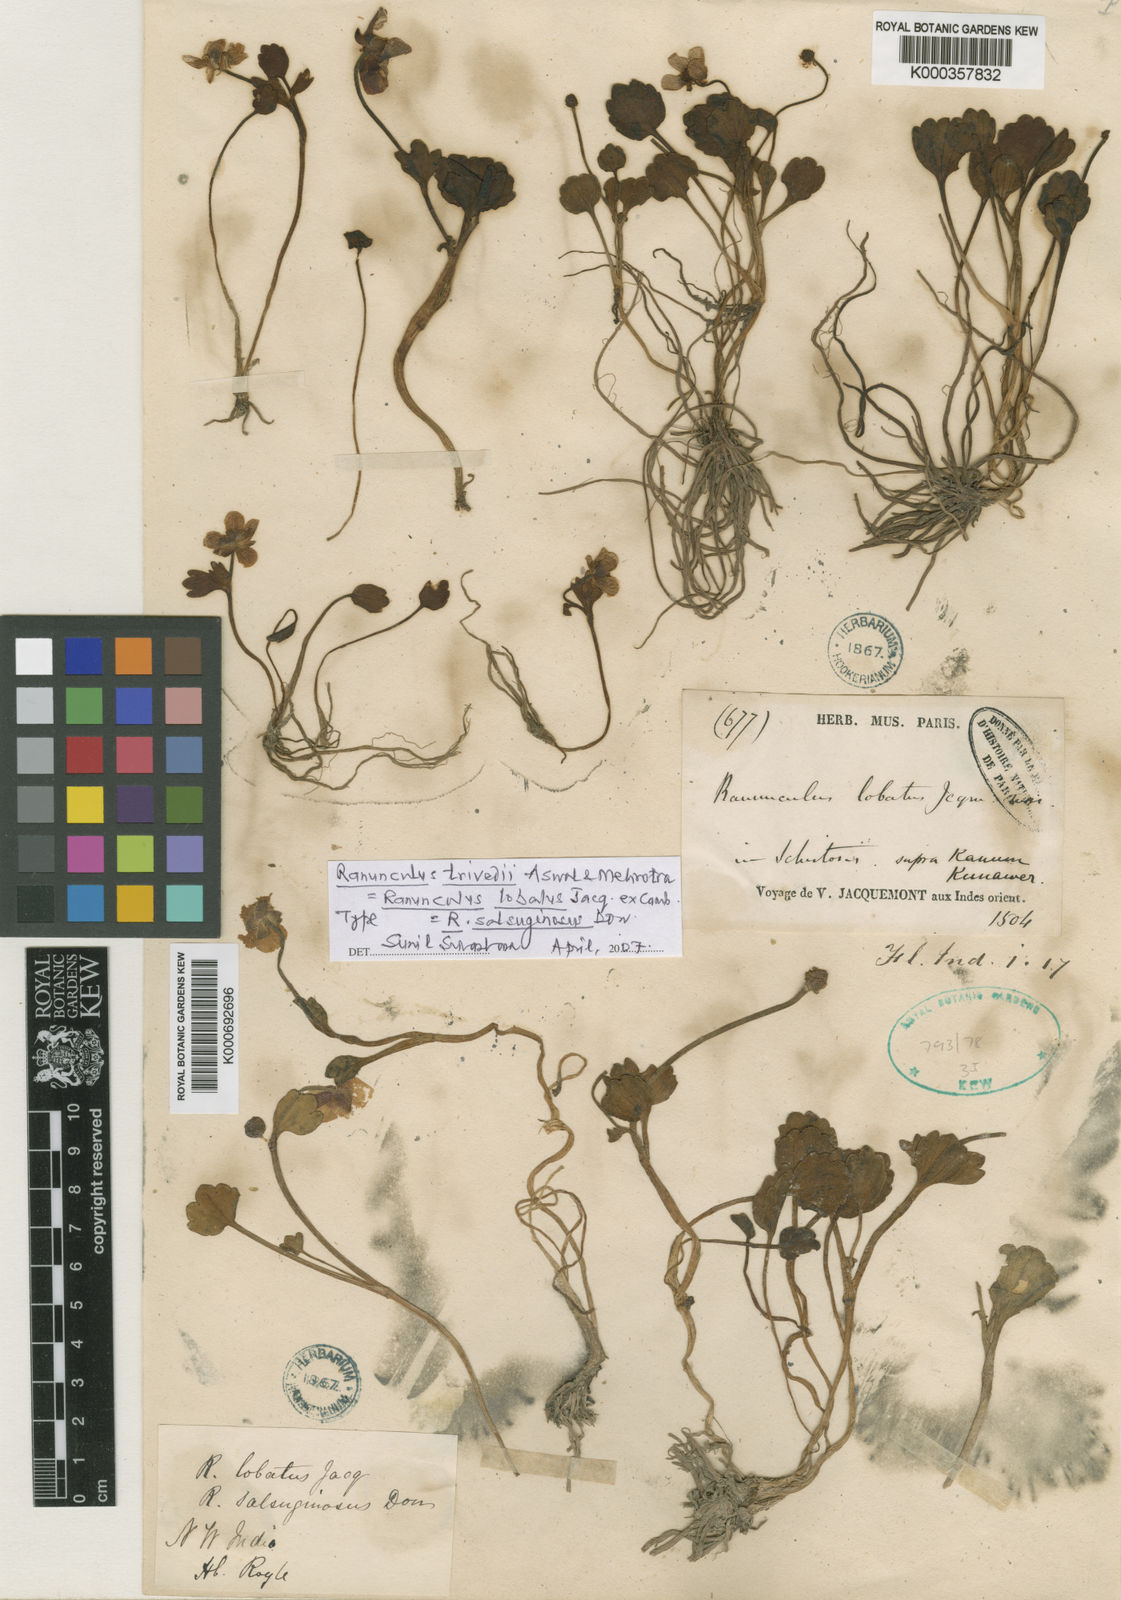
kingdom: Plantae
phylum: Tracheophyta
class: Magnoliopsida
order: Ranunculales
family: Ranunculaceae
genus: Ranunculus
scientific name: Ranunculus
